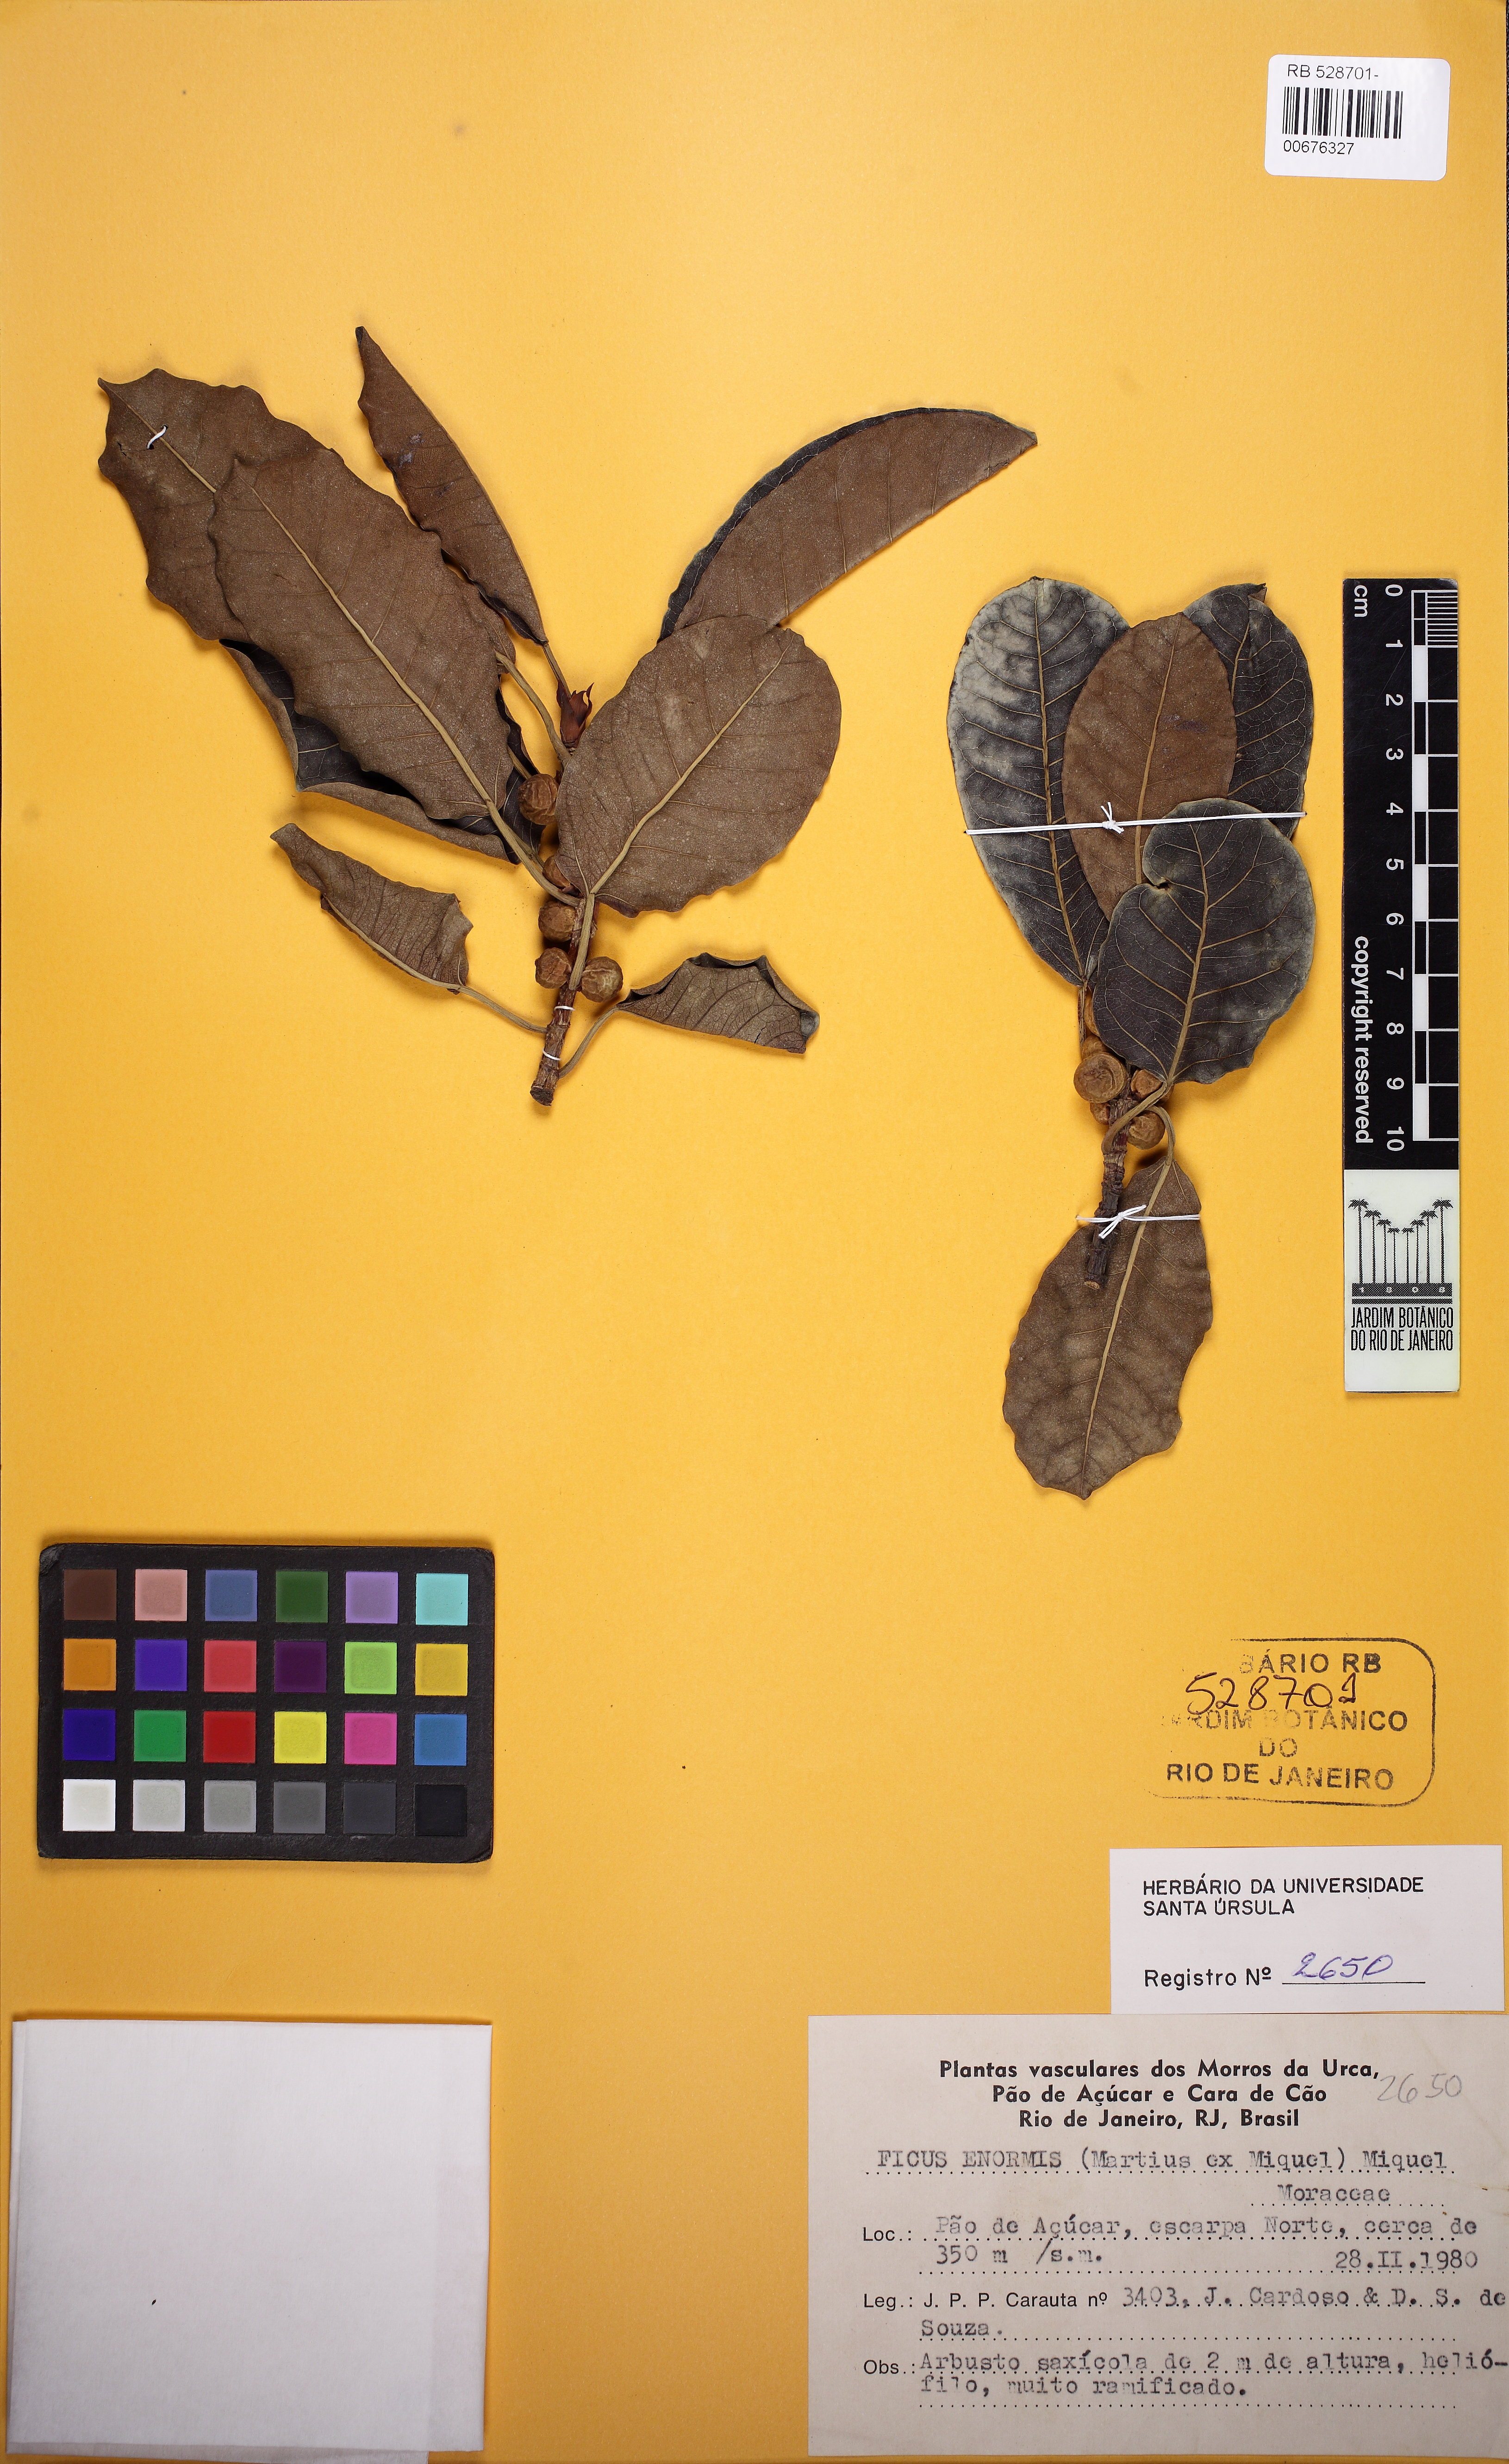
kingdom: Plantae
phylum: Tracheophyta
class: Magnoliopsida
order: Rosales
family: Moraceae
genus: Ficus
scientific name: Ficus luschnathiana
